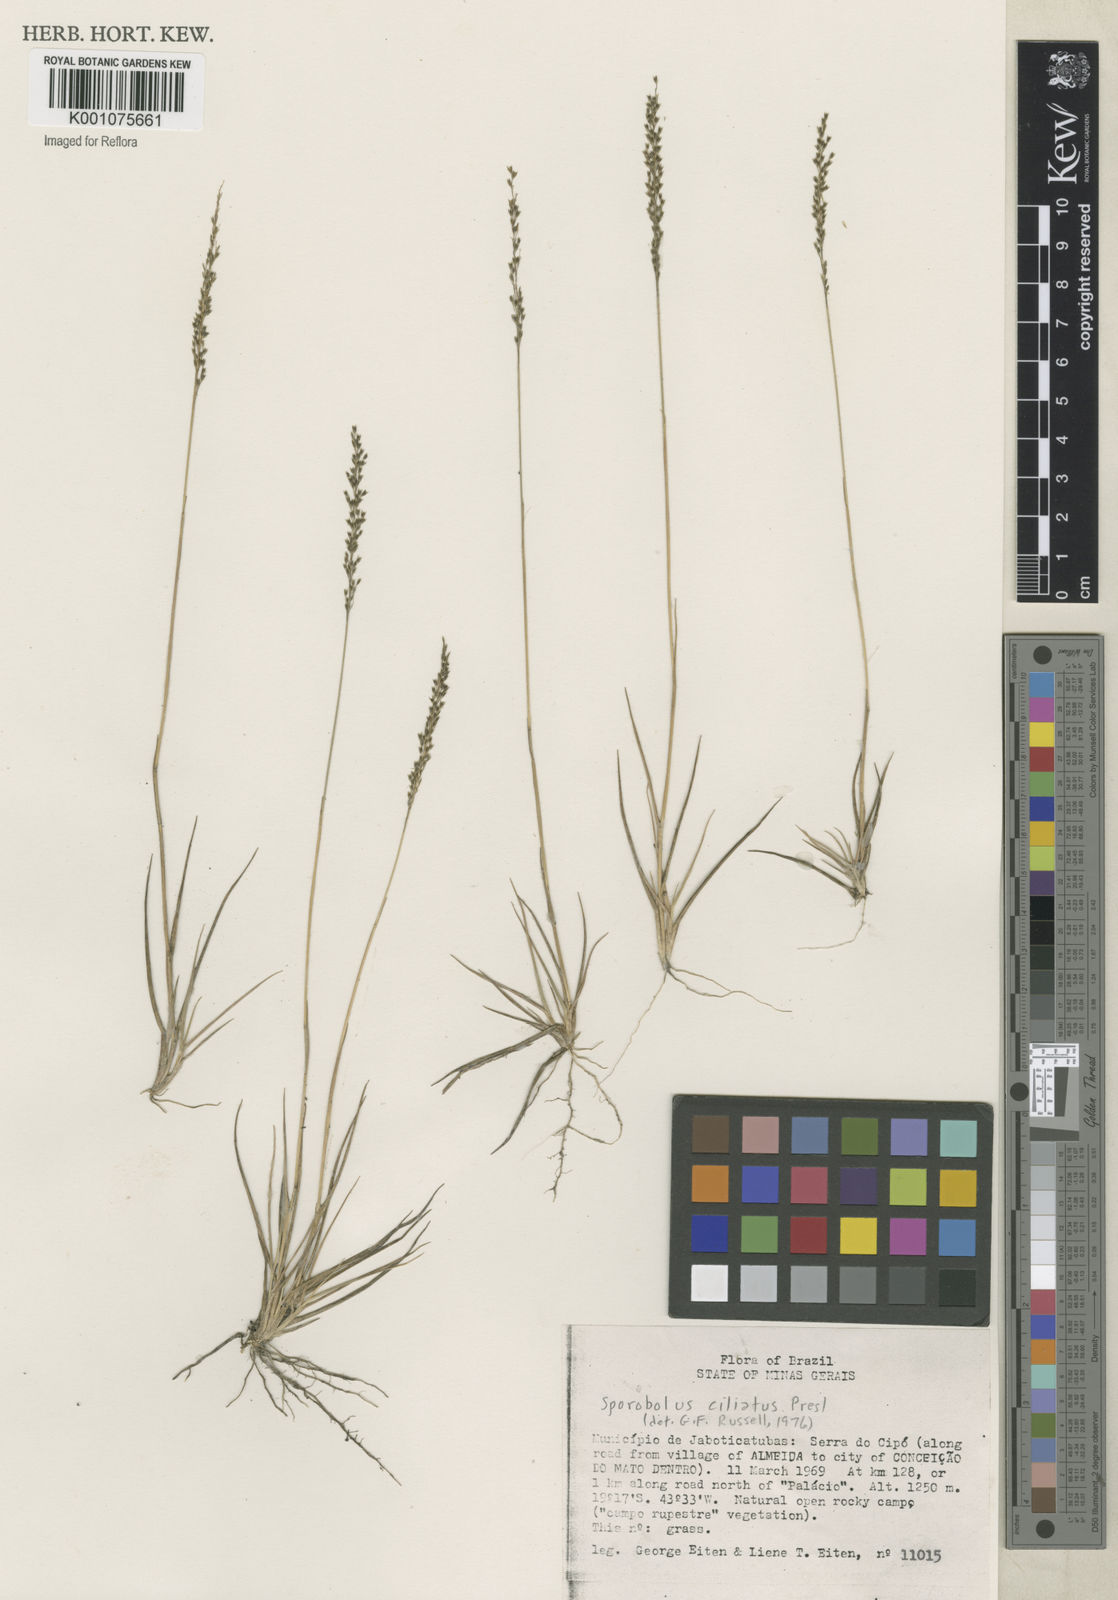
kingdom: Plantae
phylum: Tracheophyta
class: Liliopsida
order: Poales
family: Poaceae
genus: Sporobolus
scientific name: Sporobolus pilifer
